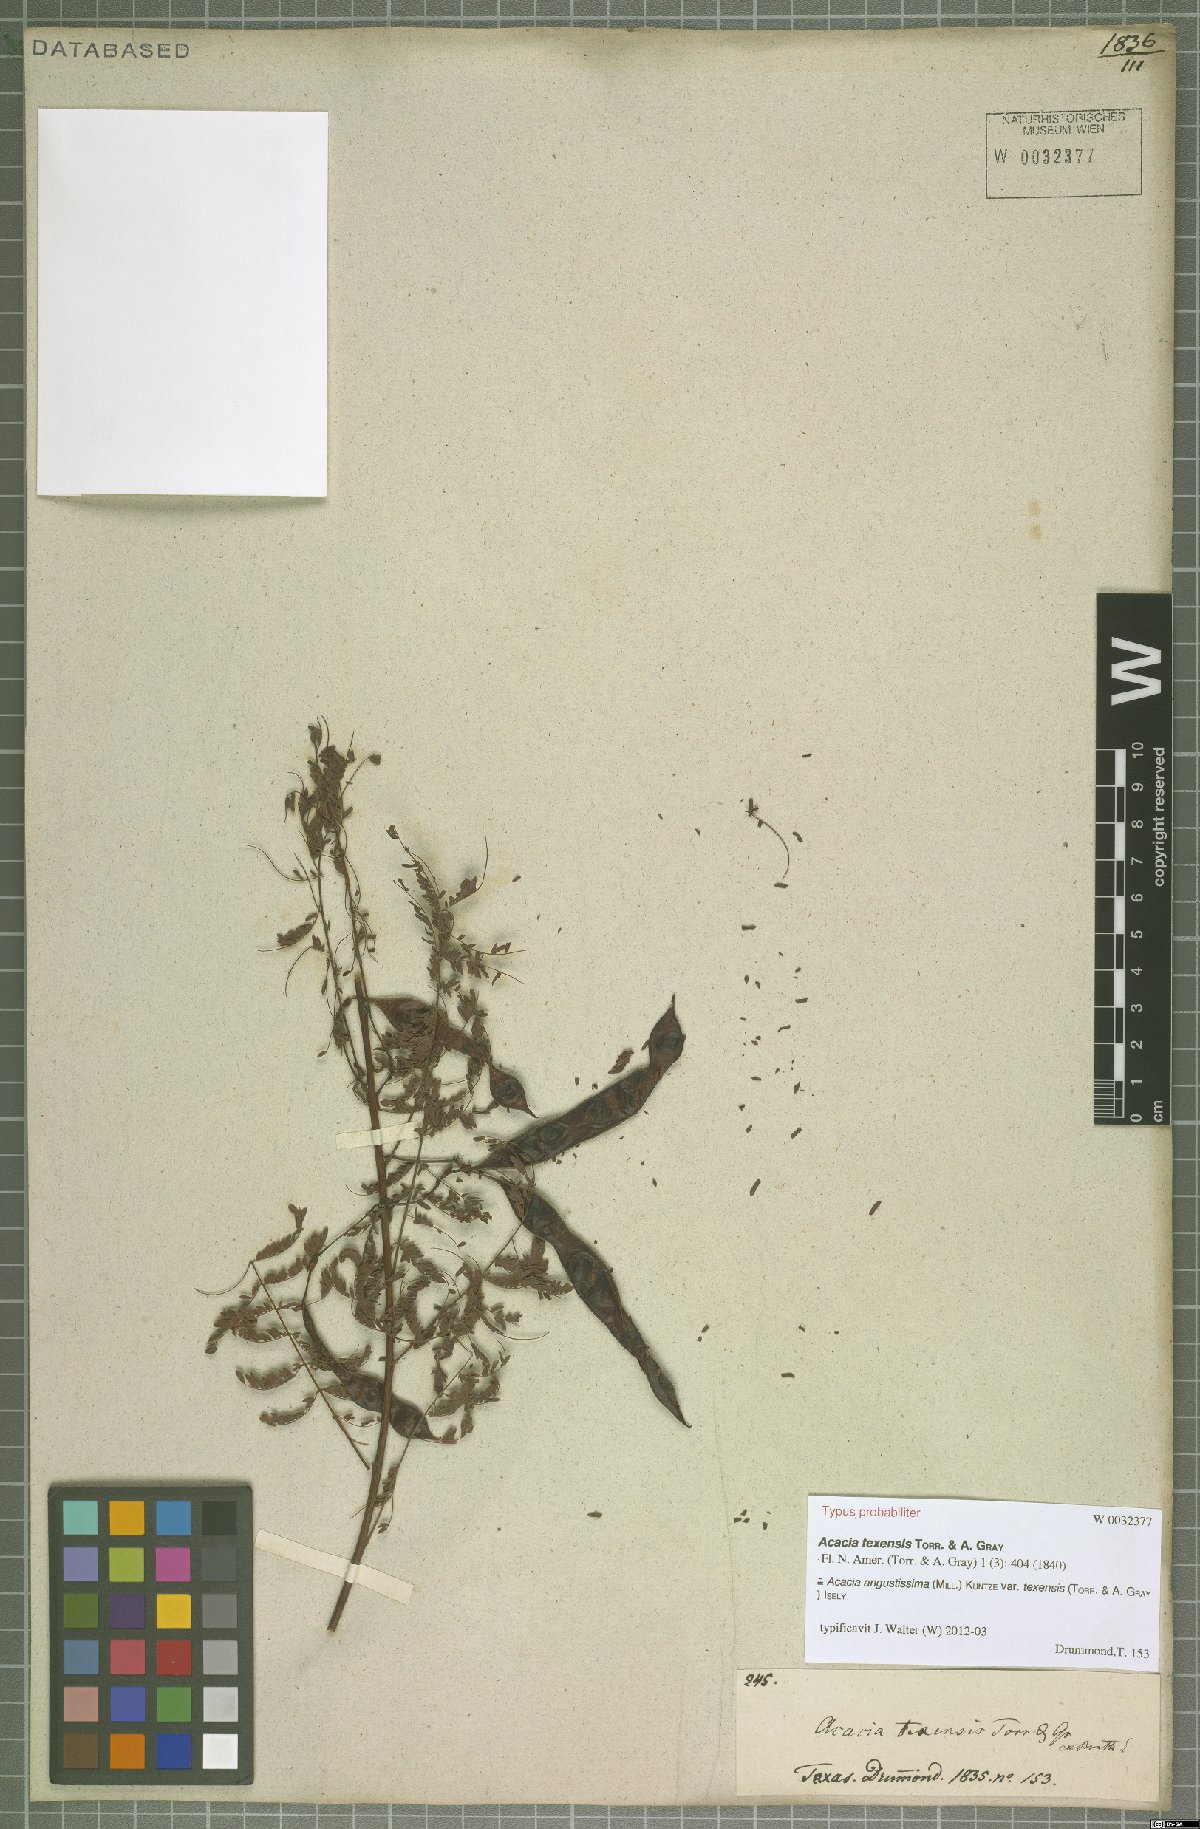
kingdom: Plantae
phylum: Tracheophyta
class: Magnoliopsida
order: Fabales
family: Fabaceae
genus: Acaciella
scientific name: Acaciella angustissima
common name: Prairie acacia
